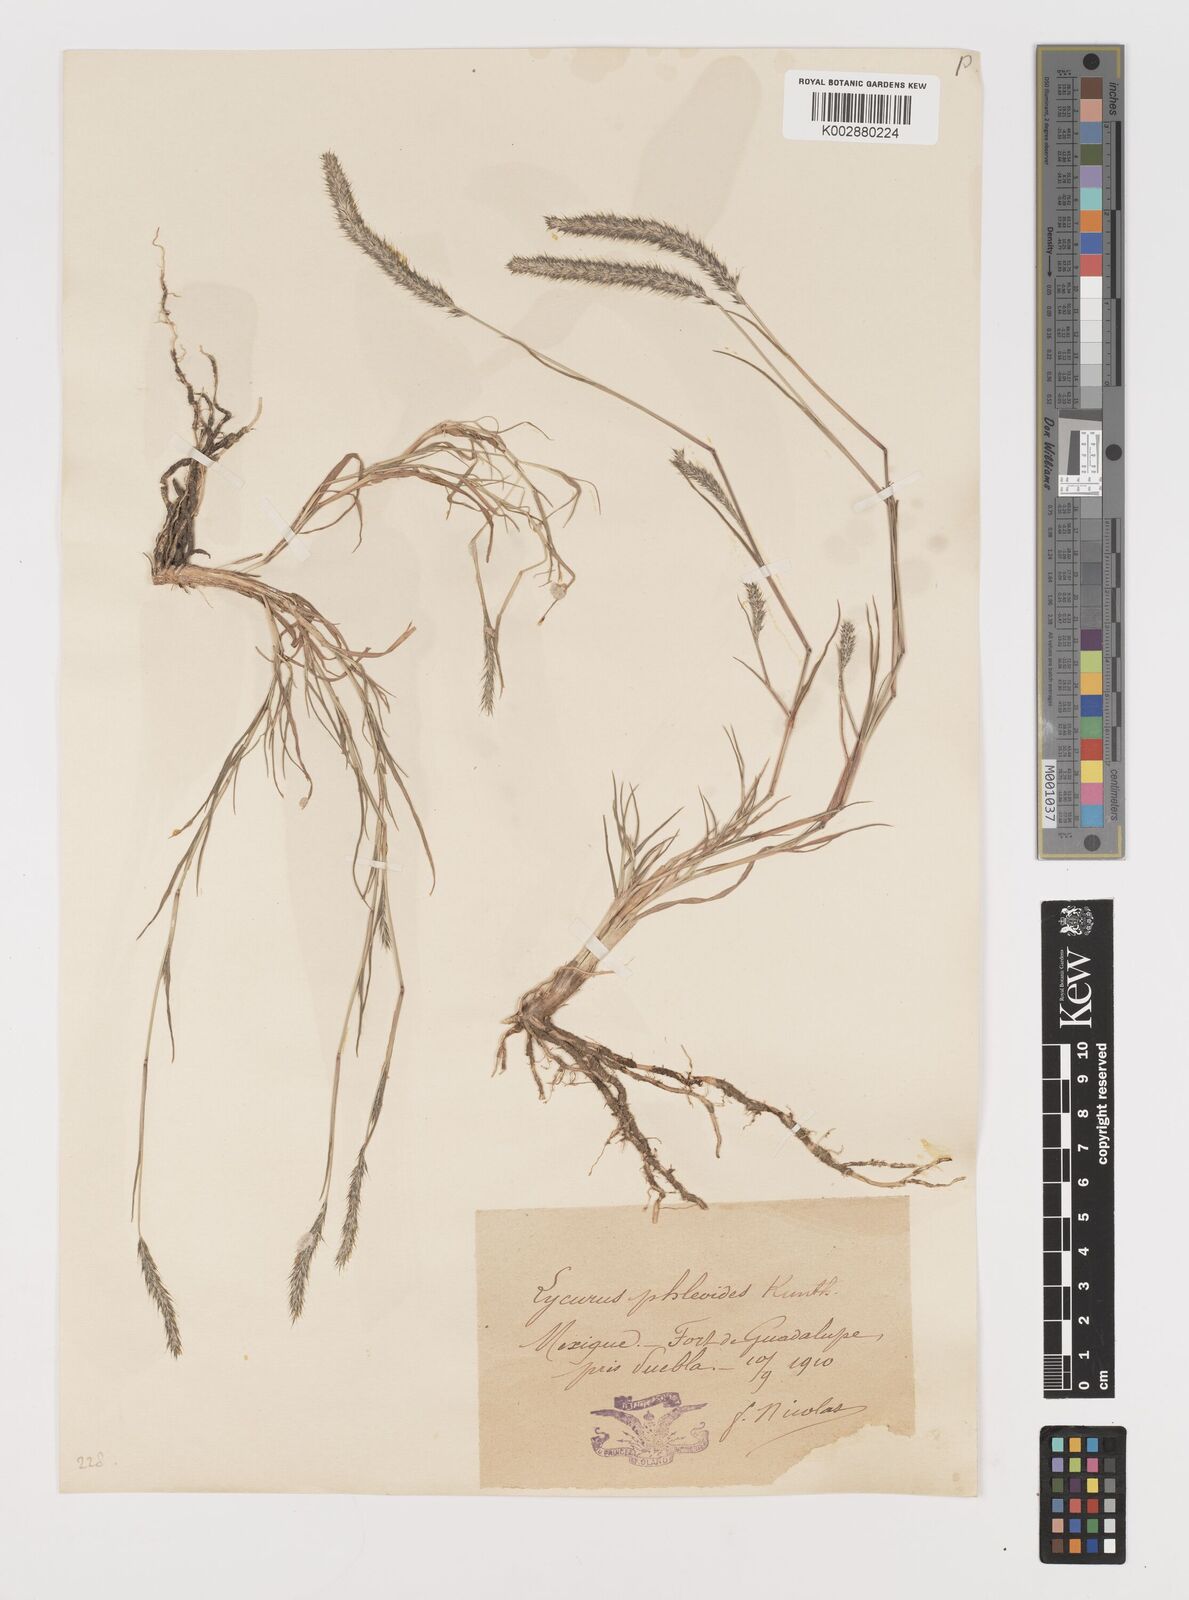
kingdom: Plantae
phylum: Tracheophyta
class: Liliopsida
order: Poales
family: Poaceae
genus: Muhlenbergia
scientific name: Muhlenbergia phleoides
